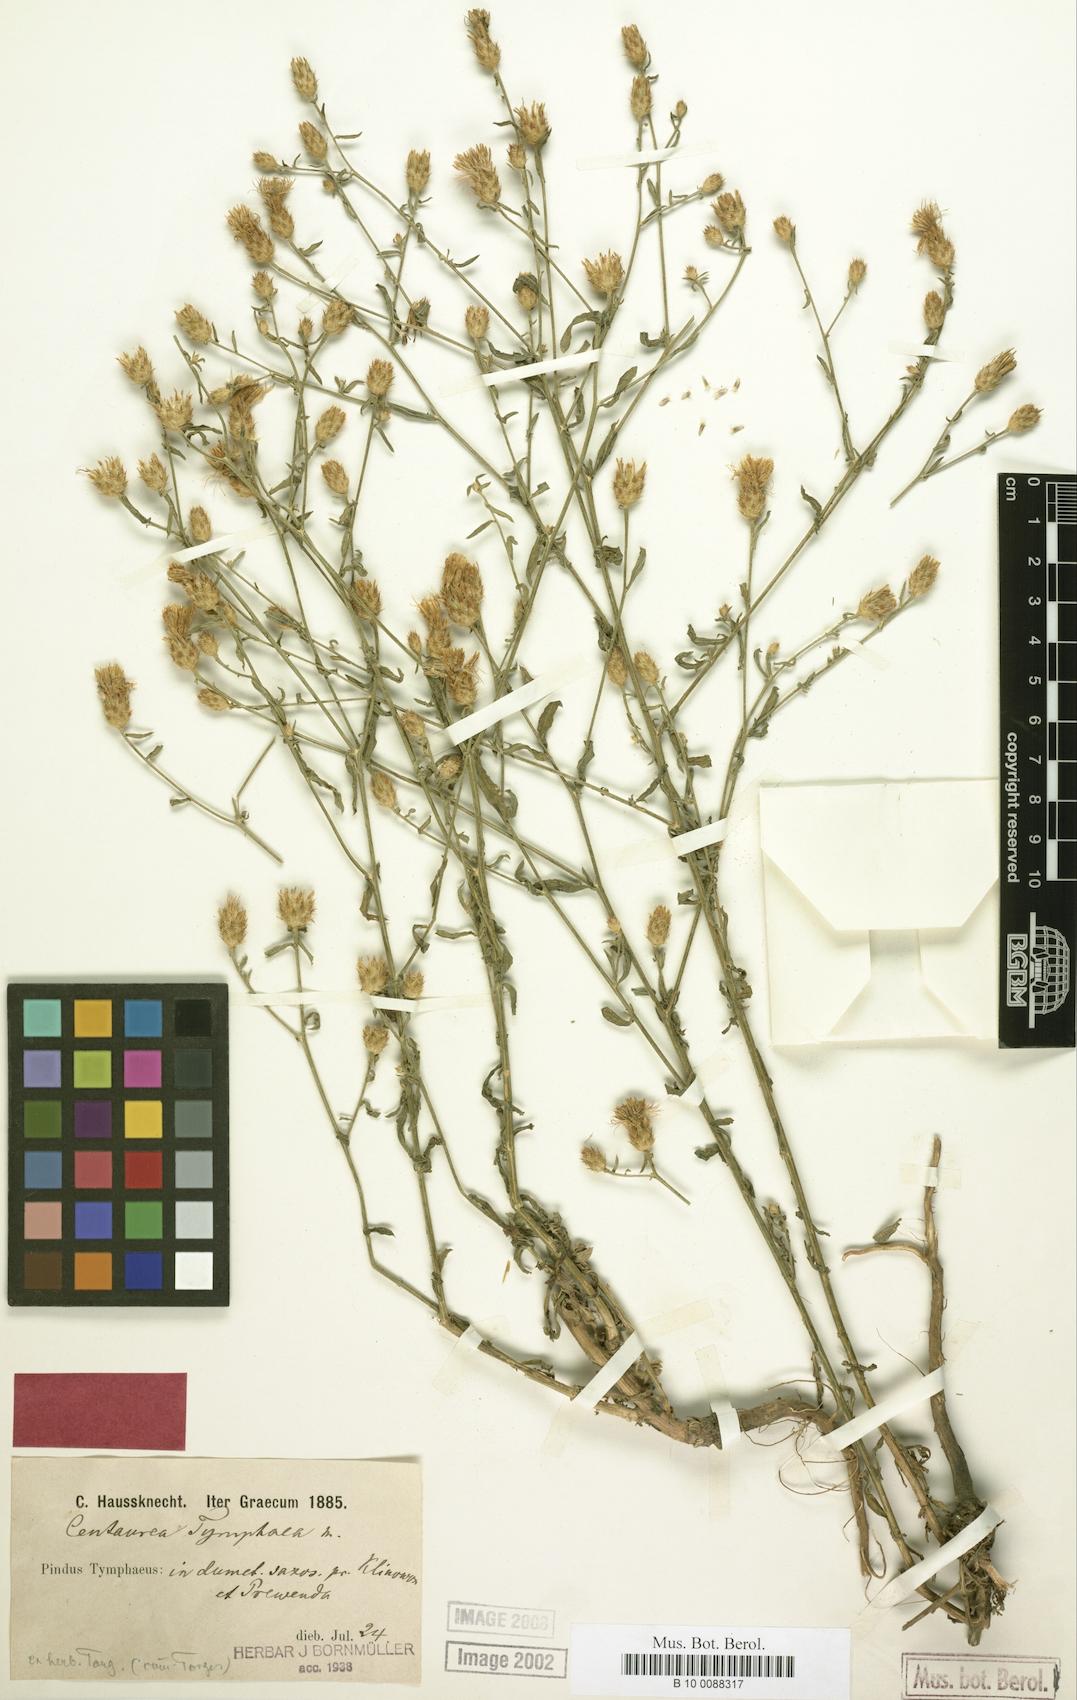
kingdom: Plantae
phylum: Tracheophyta
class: Magnoliopsida
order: Asterales
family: Asteraceae
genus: Centaurea
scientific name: Centaurea tymphaea
